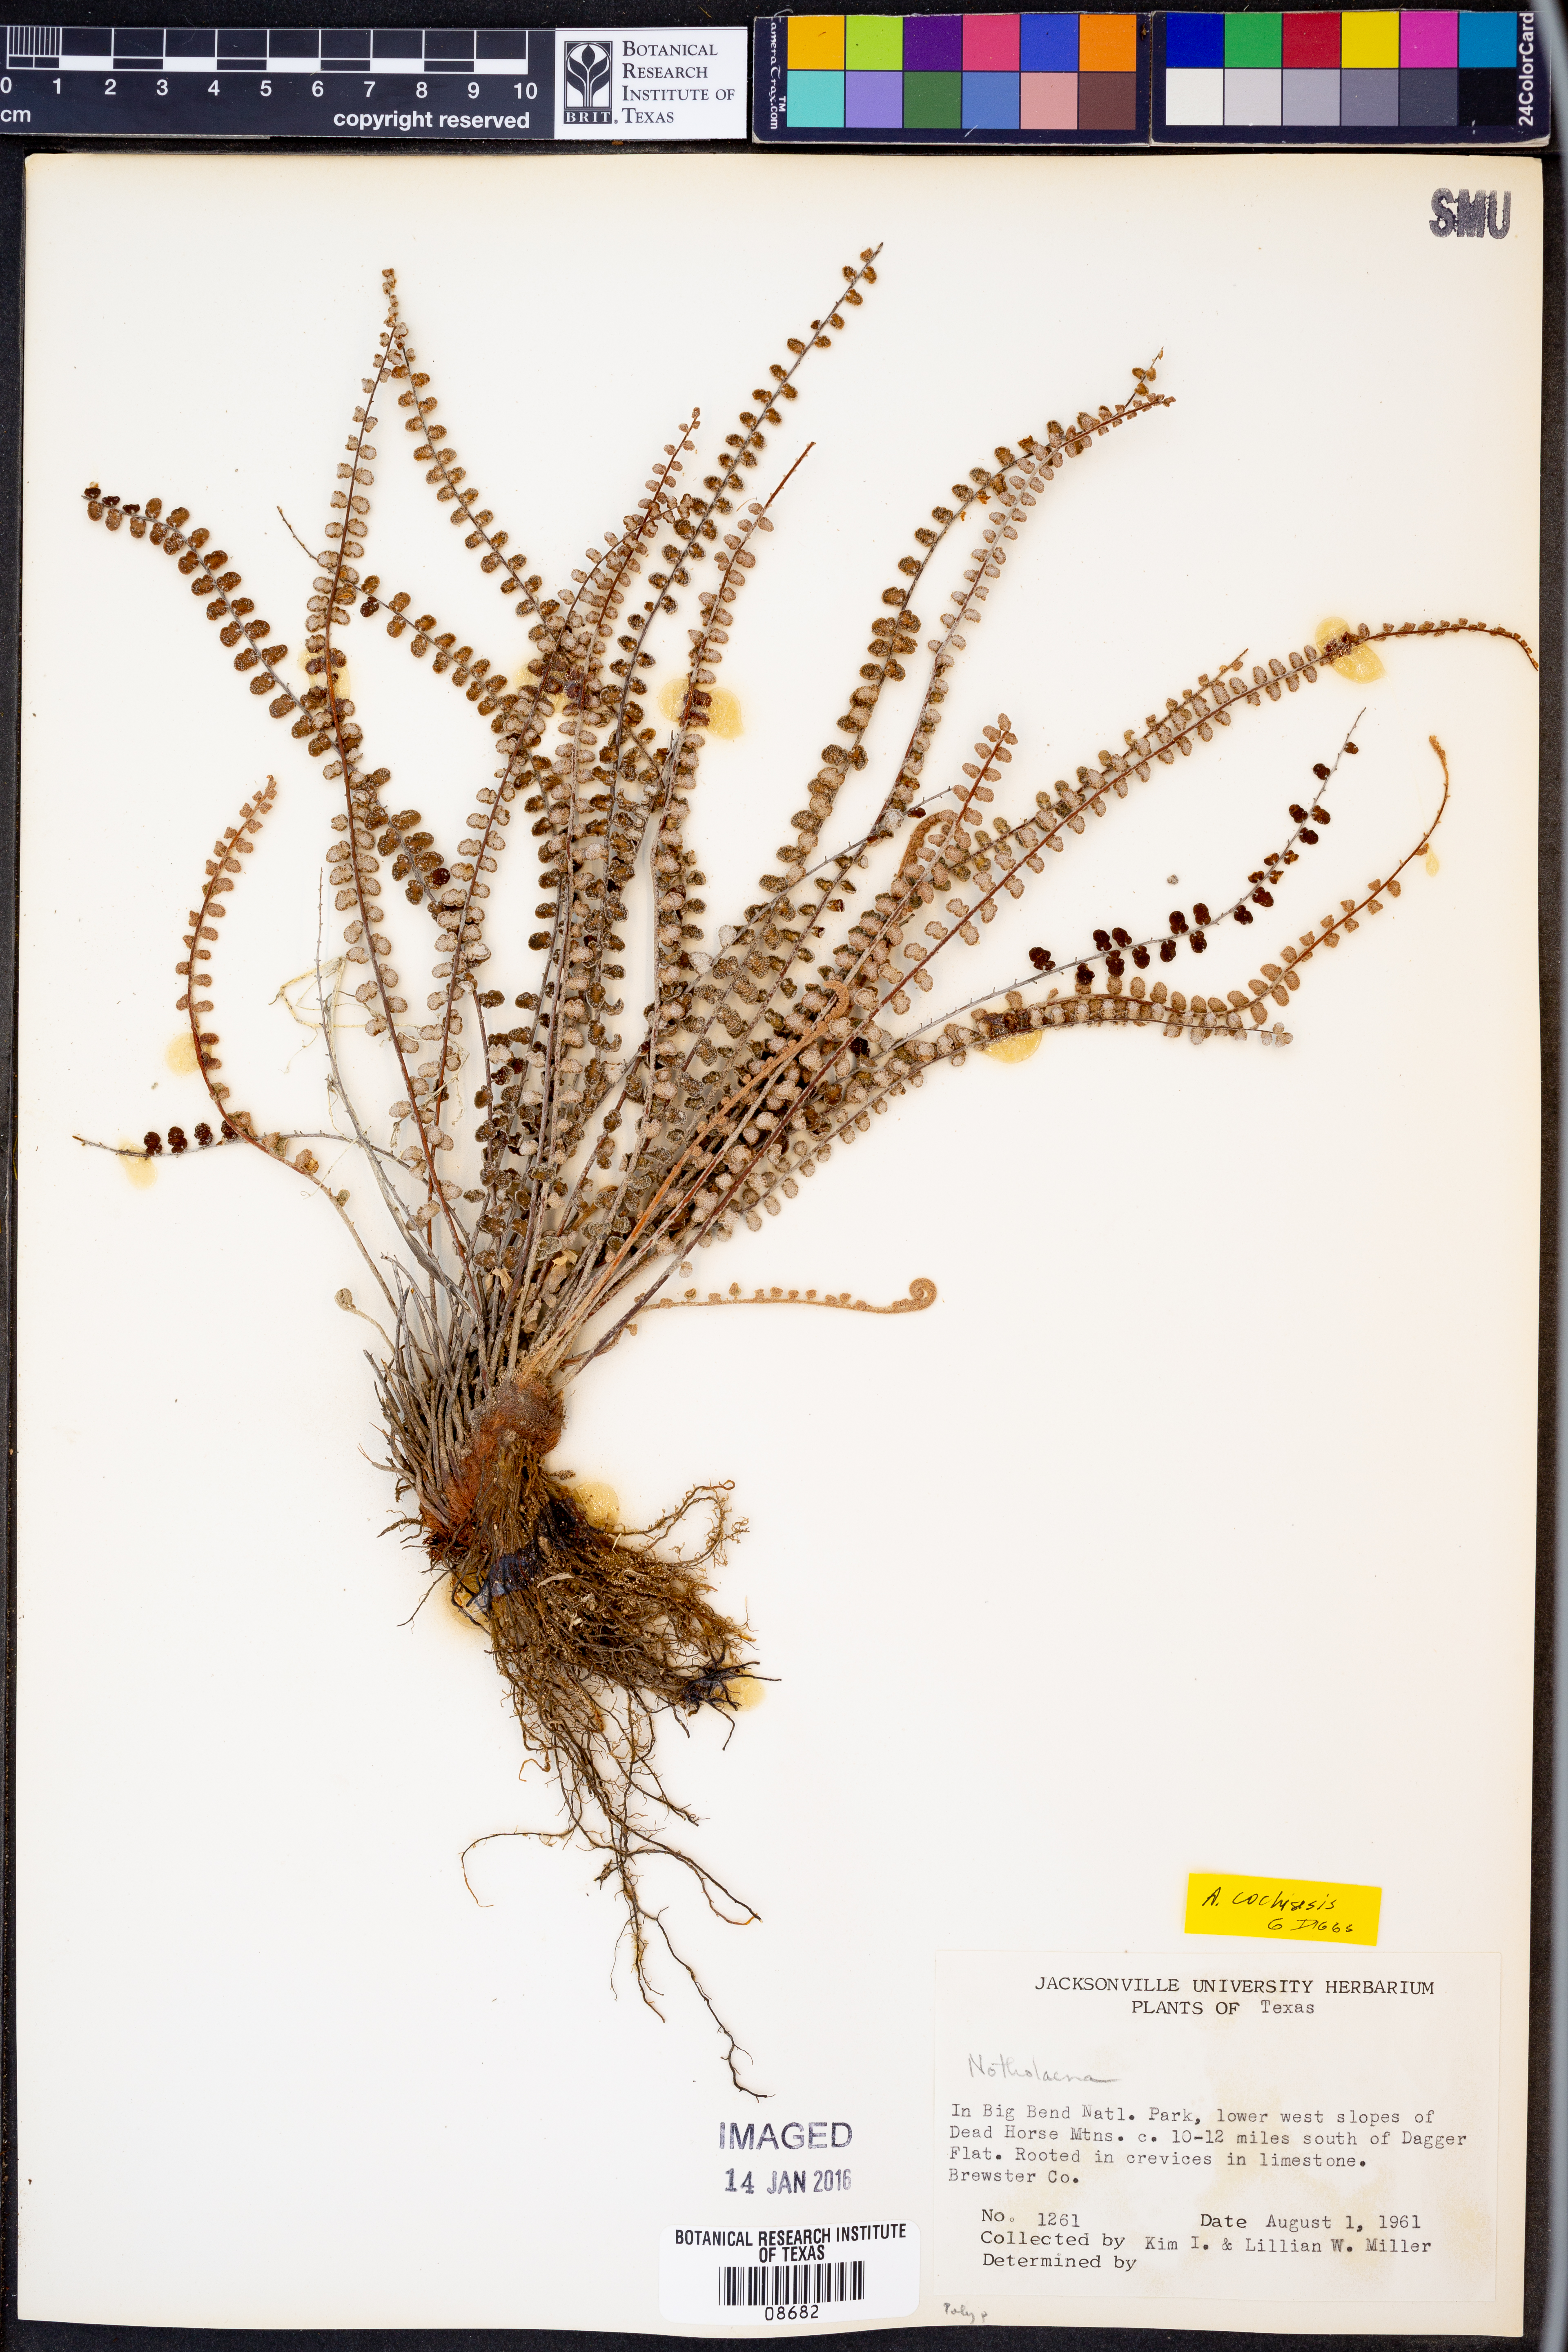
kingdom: Plantae
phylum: Tracheophyta
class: Polypodiopsida
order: Polypodiales
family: Pteridaceae
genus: Astrolepis
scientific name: Astrolepis cochisensis
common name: Scaly cloak fern
